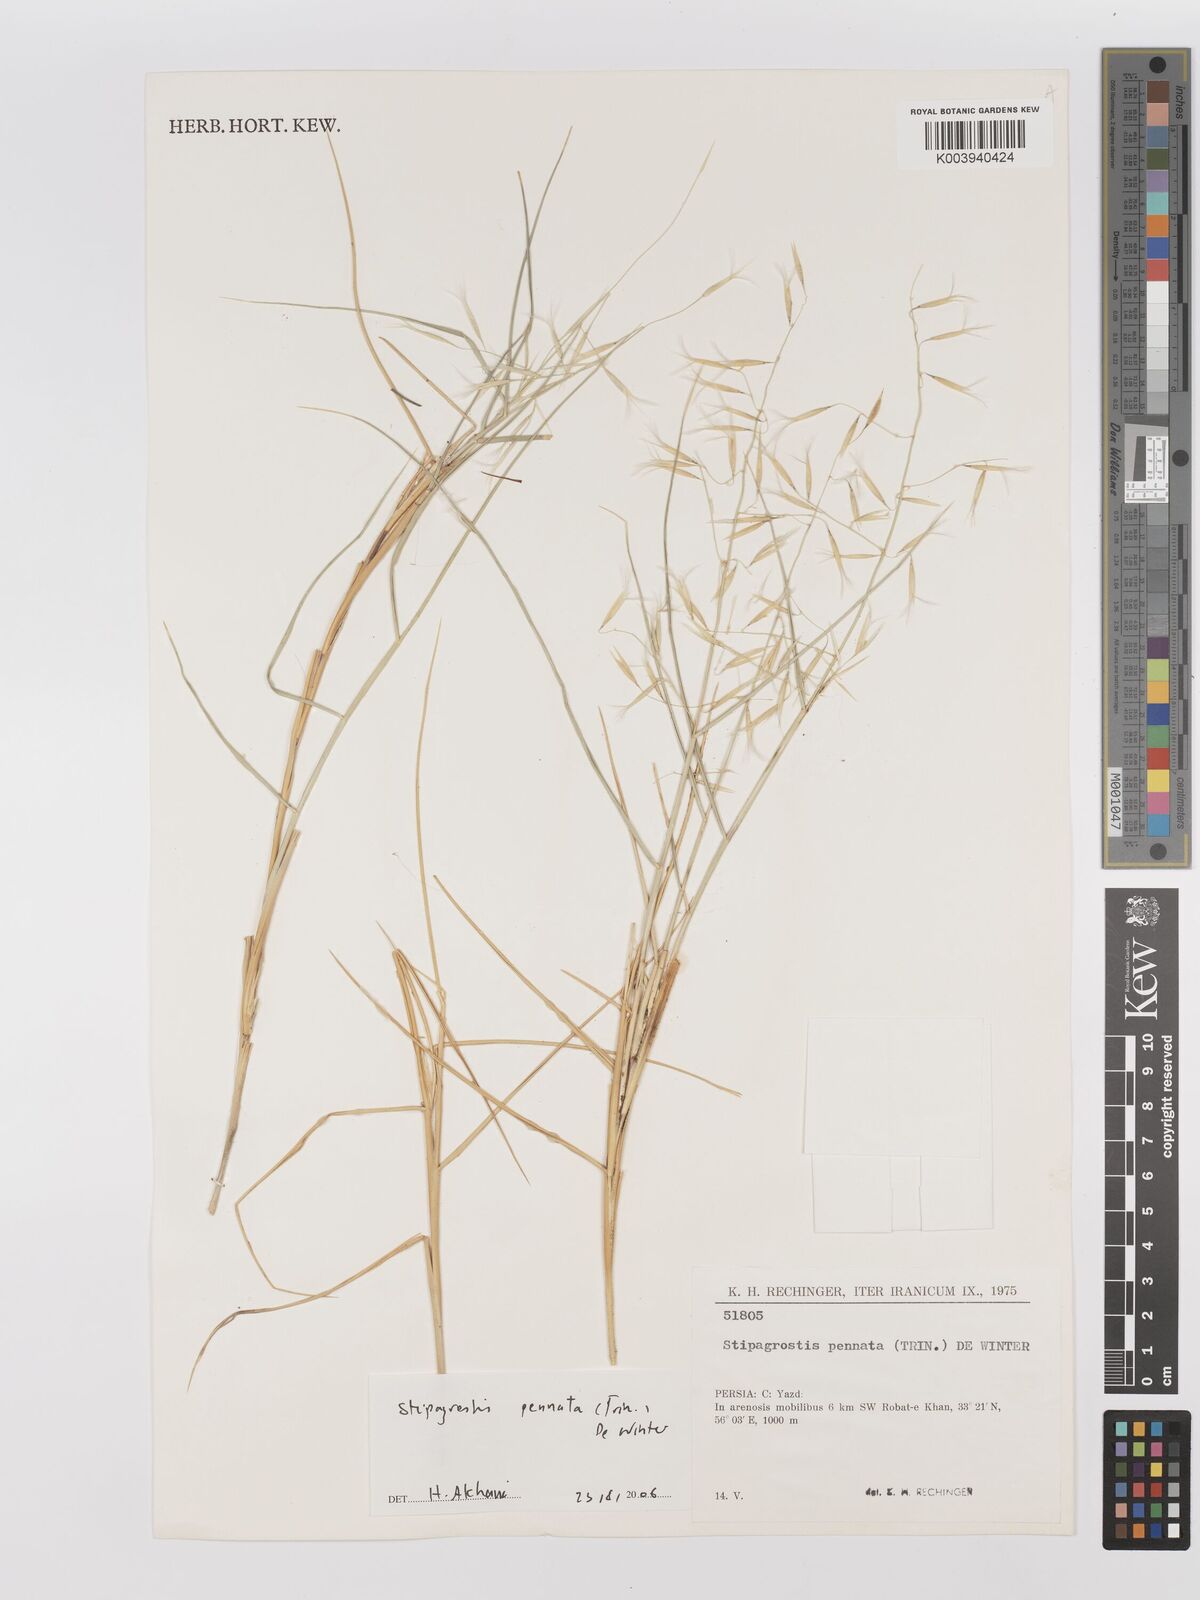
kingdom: Plantae
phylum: Tracheophyta
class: Liliopsida
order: Poales
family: Poaceae
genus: Stipagrostis
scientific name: Stipagrostis pennata
